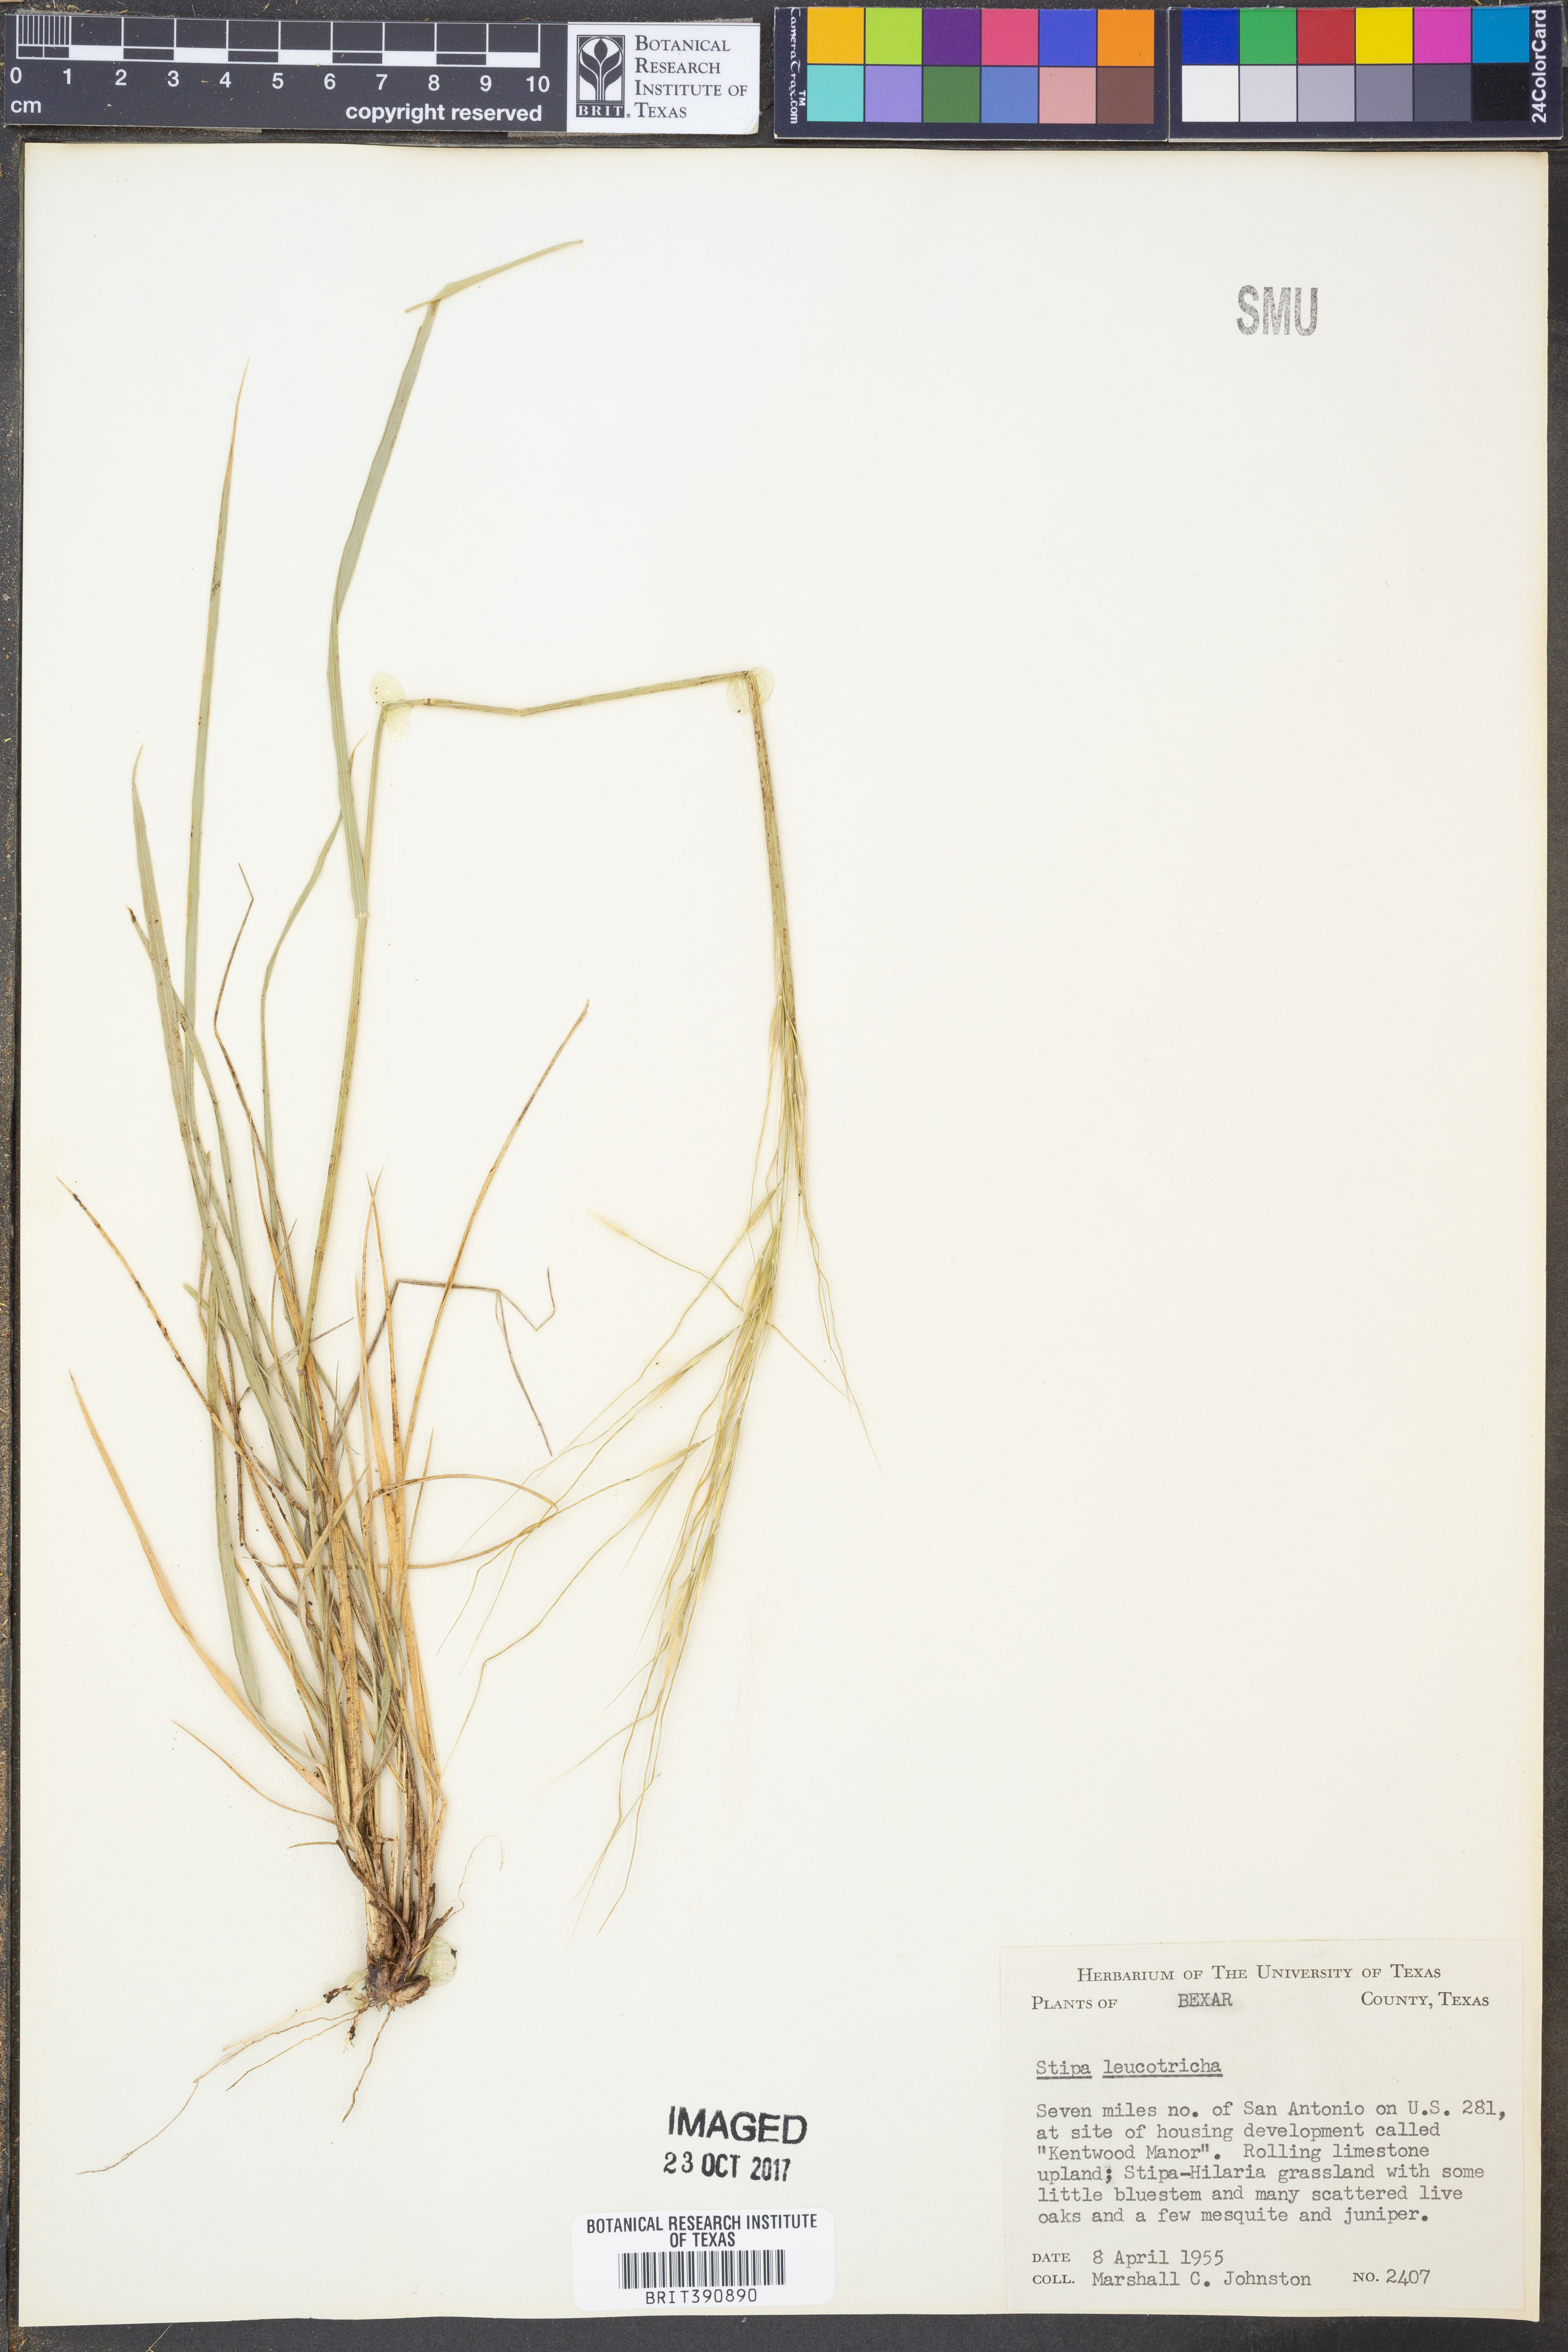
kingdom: Plantae
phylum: Tracheophyta
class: Liliopsida
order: Poales
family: Poaceae
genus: Nassella
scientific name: Nassella leucotricha
